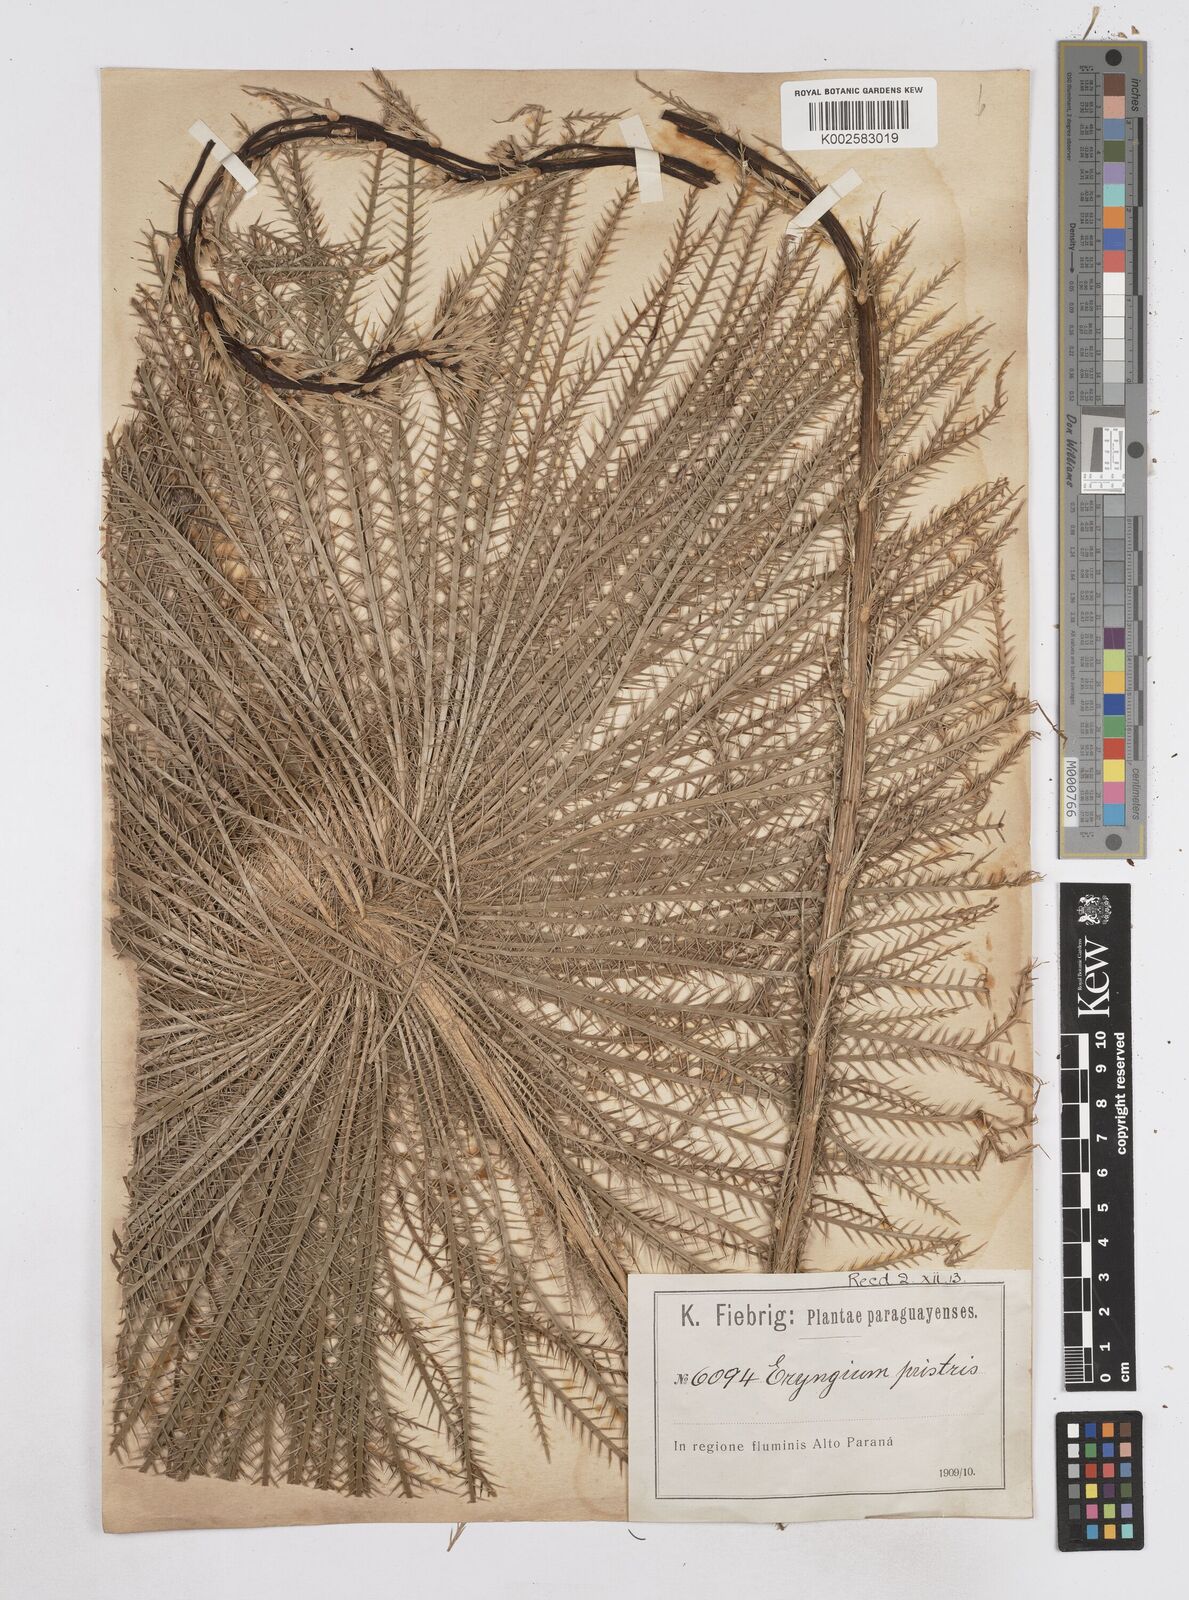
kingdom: Plantae
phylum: Tracheophyta
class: Magnoliopsida
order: Apiales
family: Apiaceae
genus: Eryngium
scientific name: Eryngium pristis
